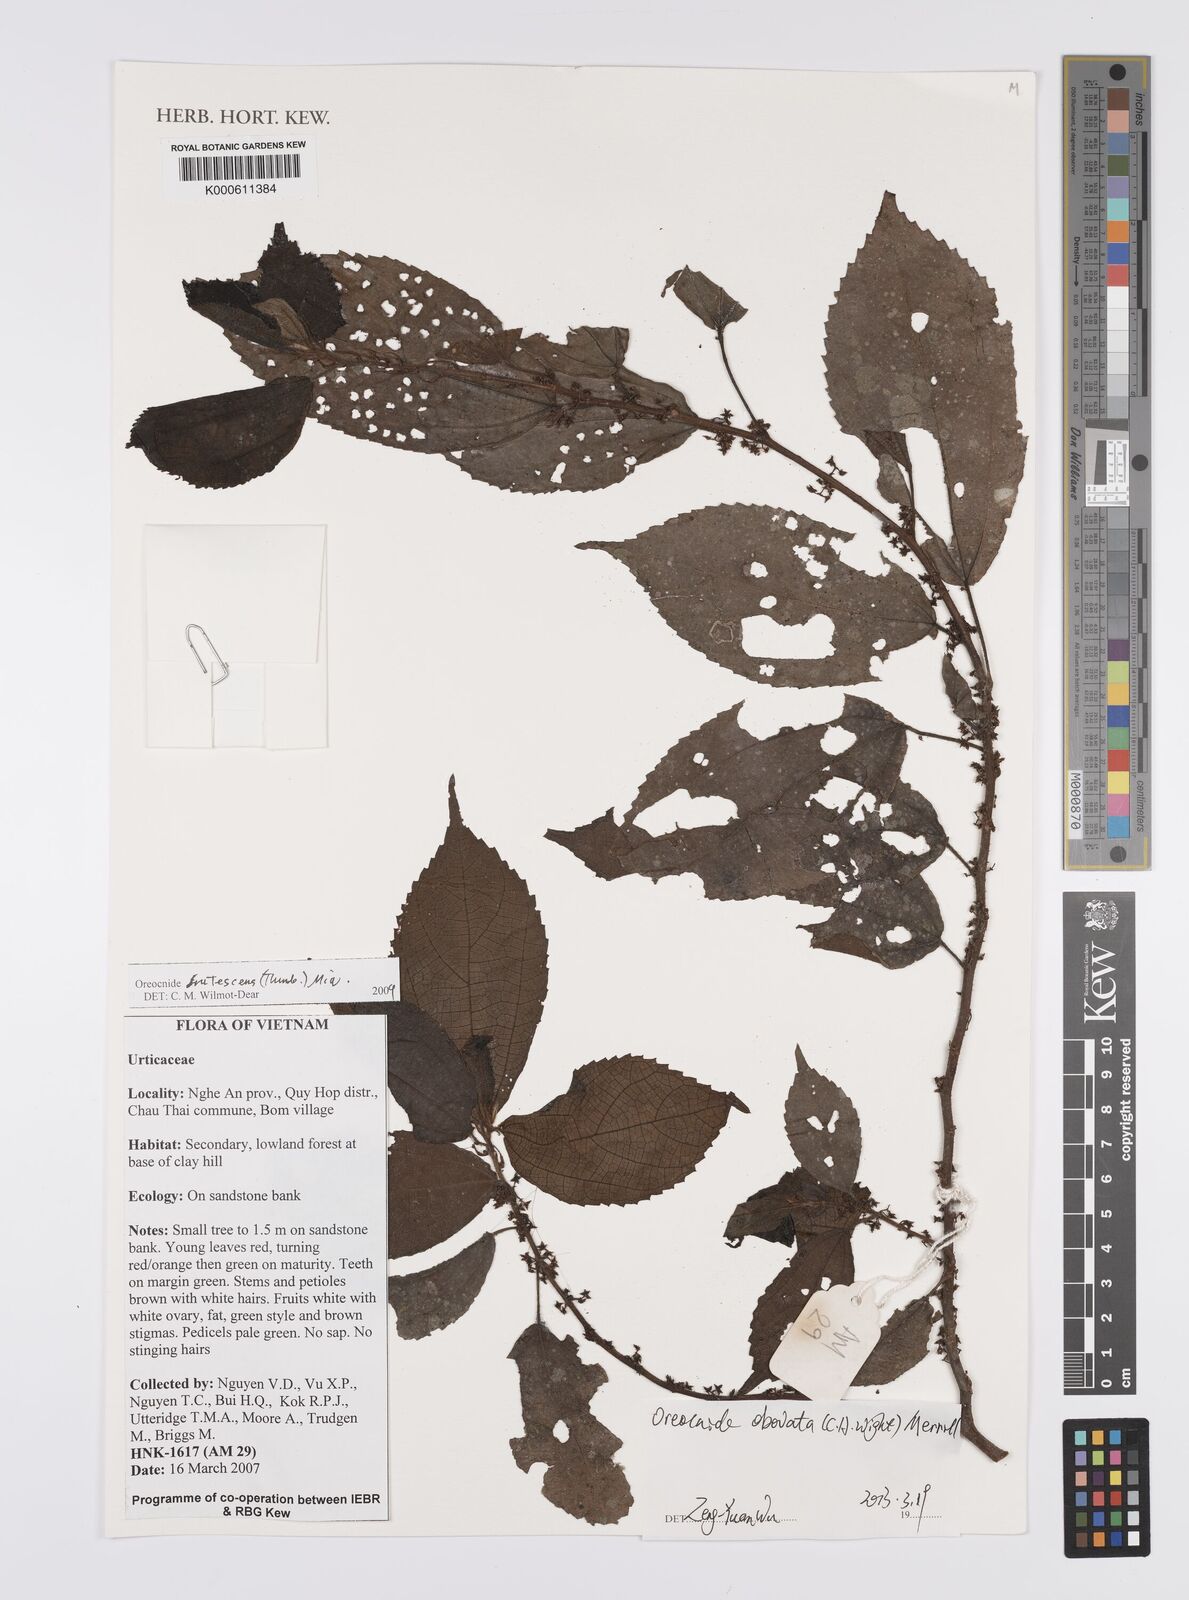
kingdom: Plantae
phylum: Tracheophyta
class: Magnoliopsida
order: Rosales
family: Urticaceae
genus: Elatostema
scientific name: Elatostema garrettii
